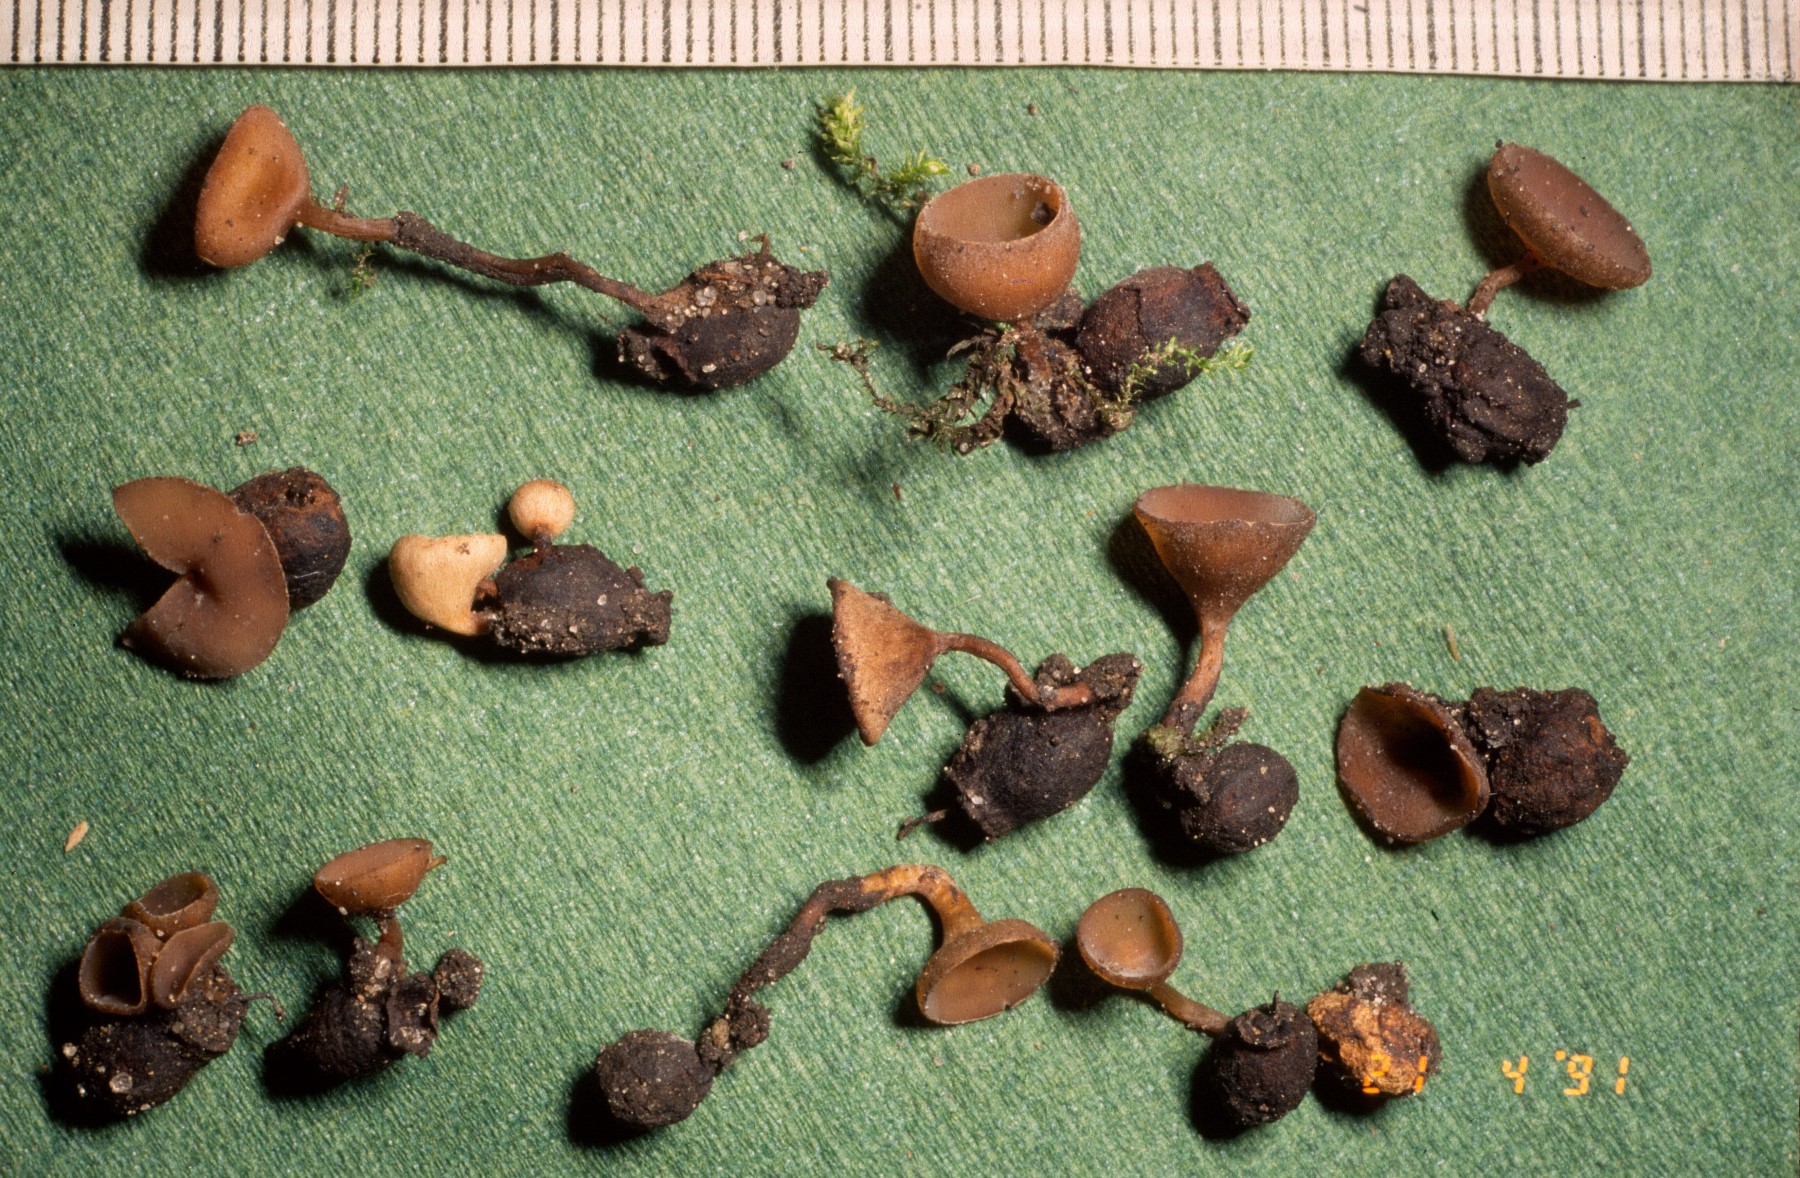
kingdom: Fungi
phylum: Ascomycota
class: Leotiomycetes
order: Helotiales
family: Sclerotiniaceae
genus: Monilinia
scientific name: Monilinia johnsonii
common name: tjørnebær-knoldskive
